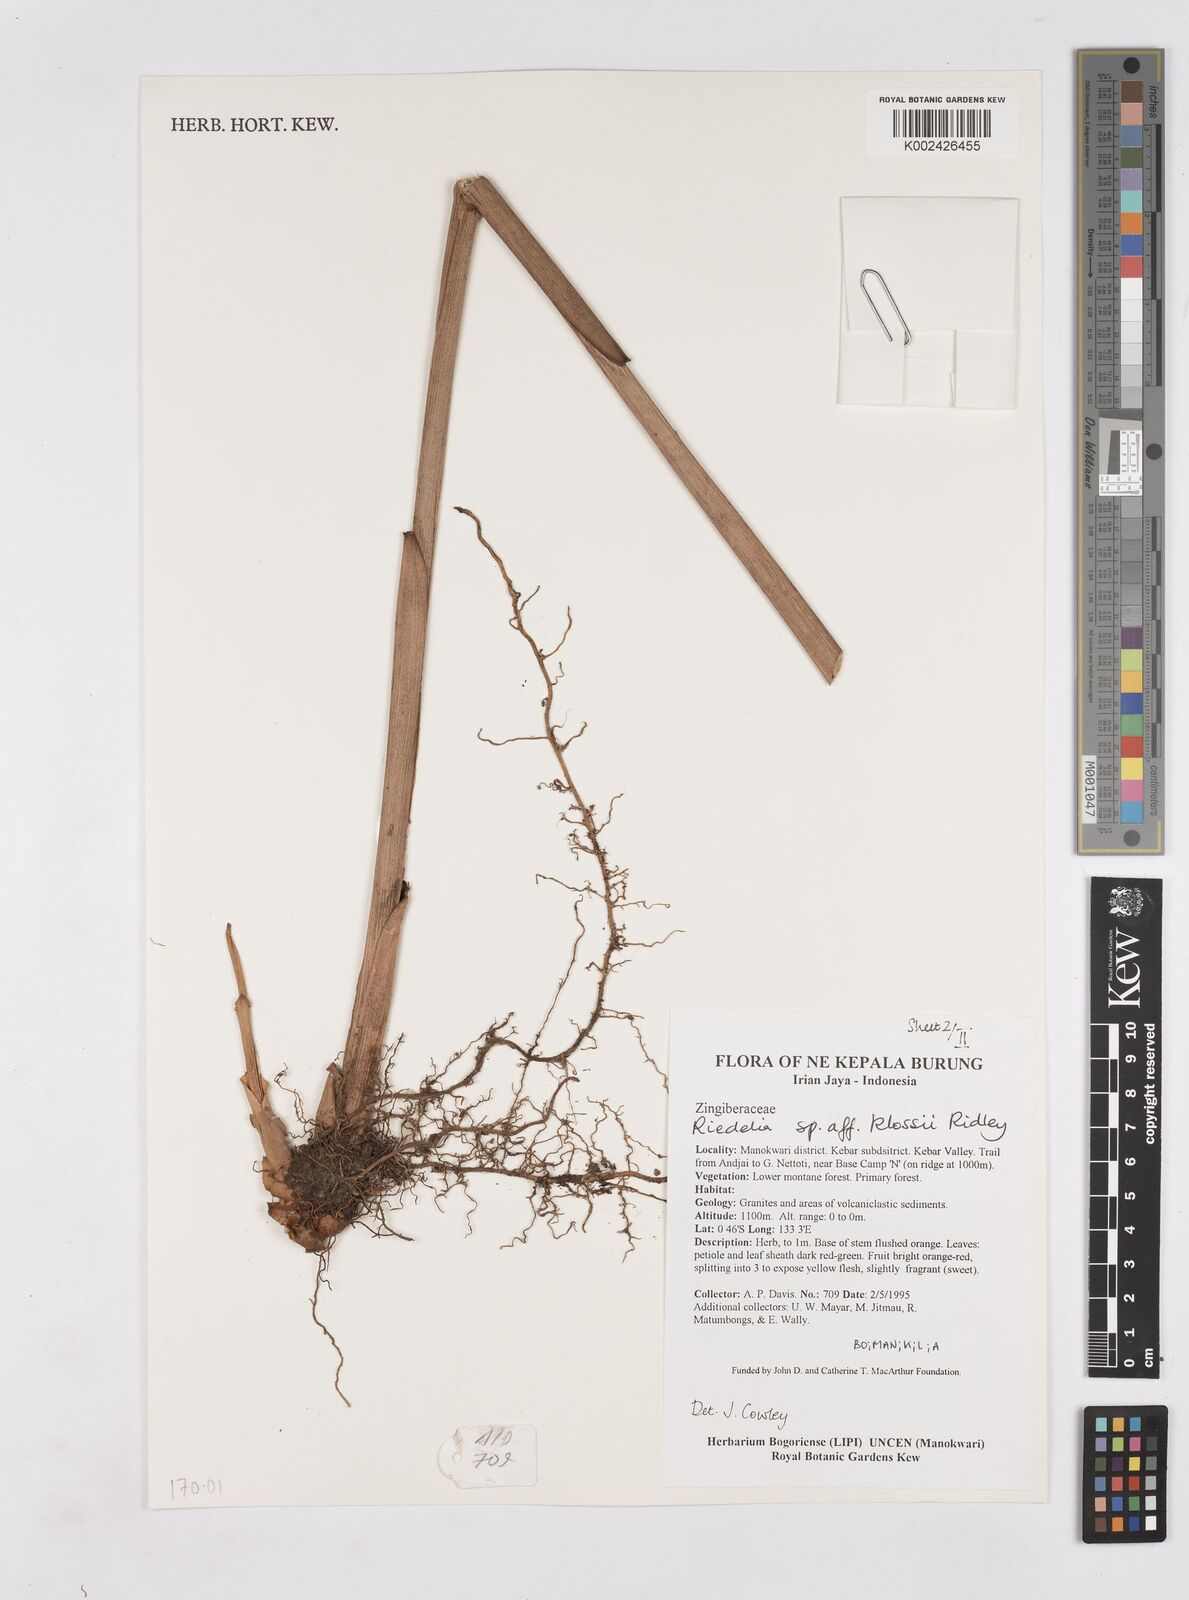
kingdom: Plantae
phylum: Tracheophyta
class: Liliopsida
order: Zingiberales
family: Zingiberaceae
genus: Riedelia
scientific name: Riedelia klossii
